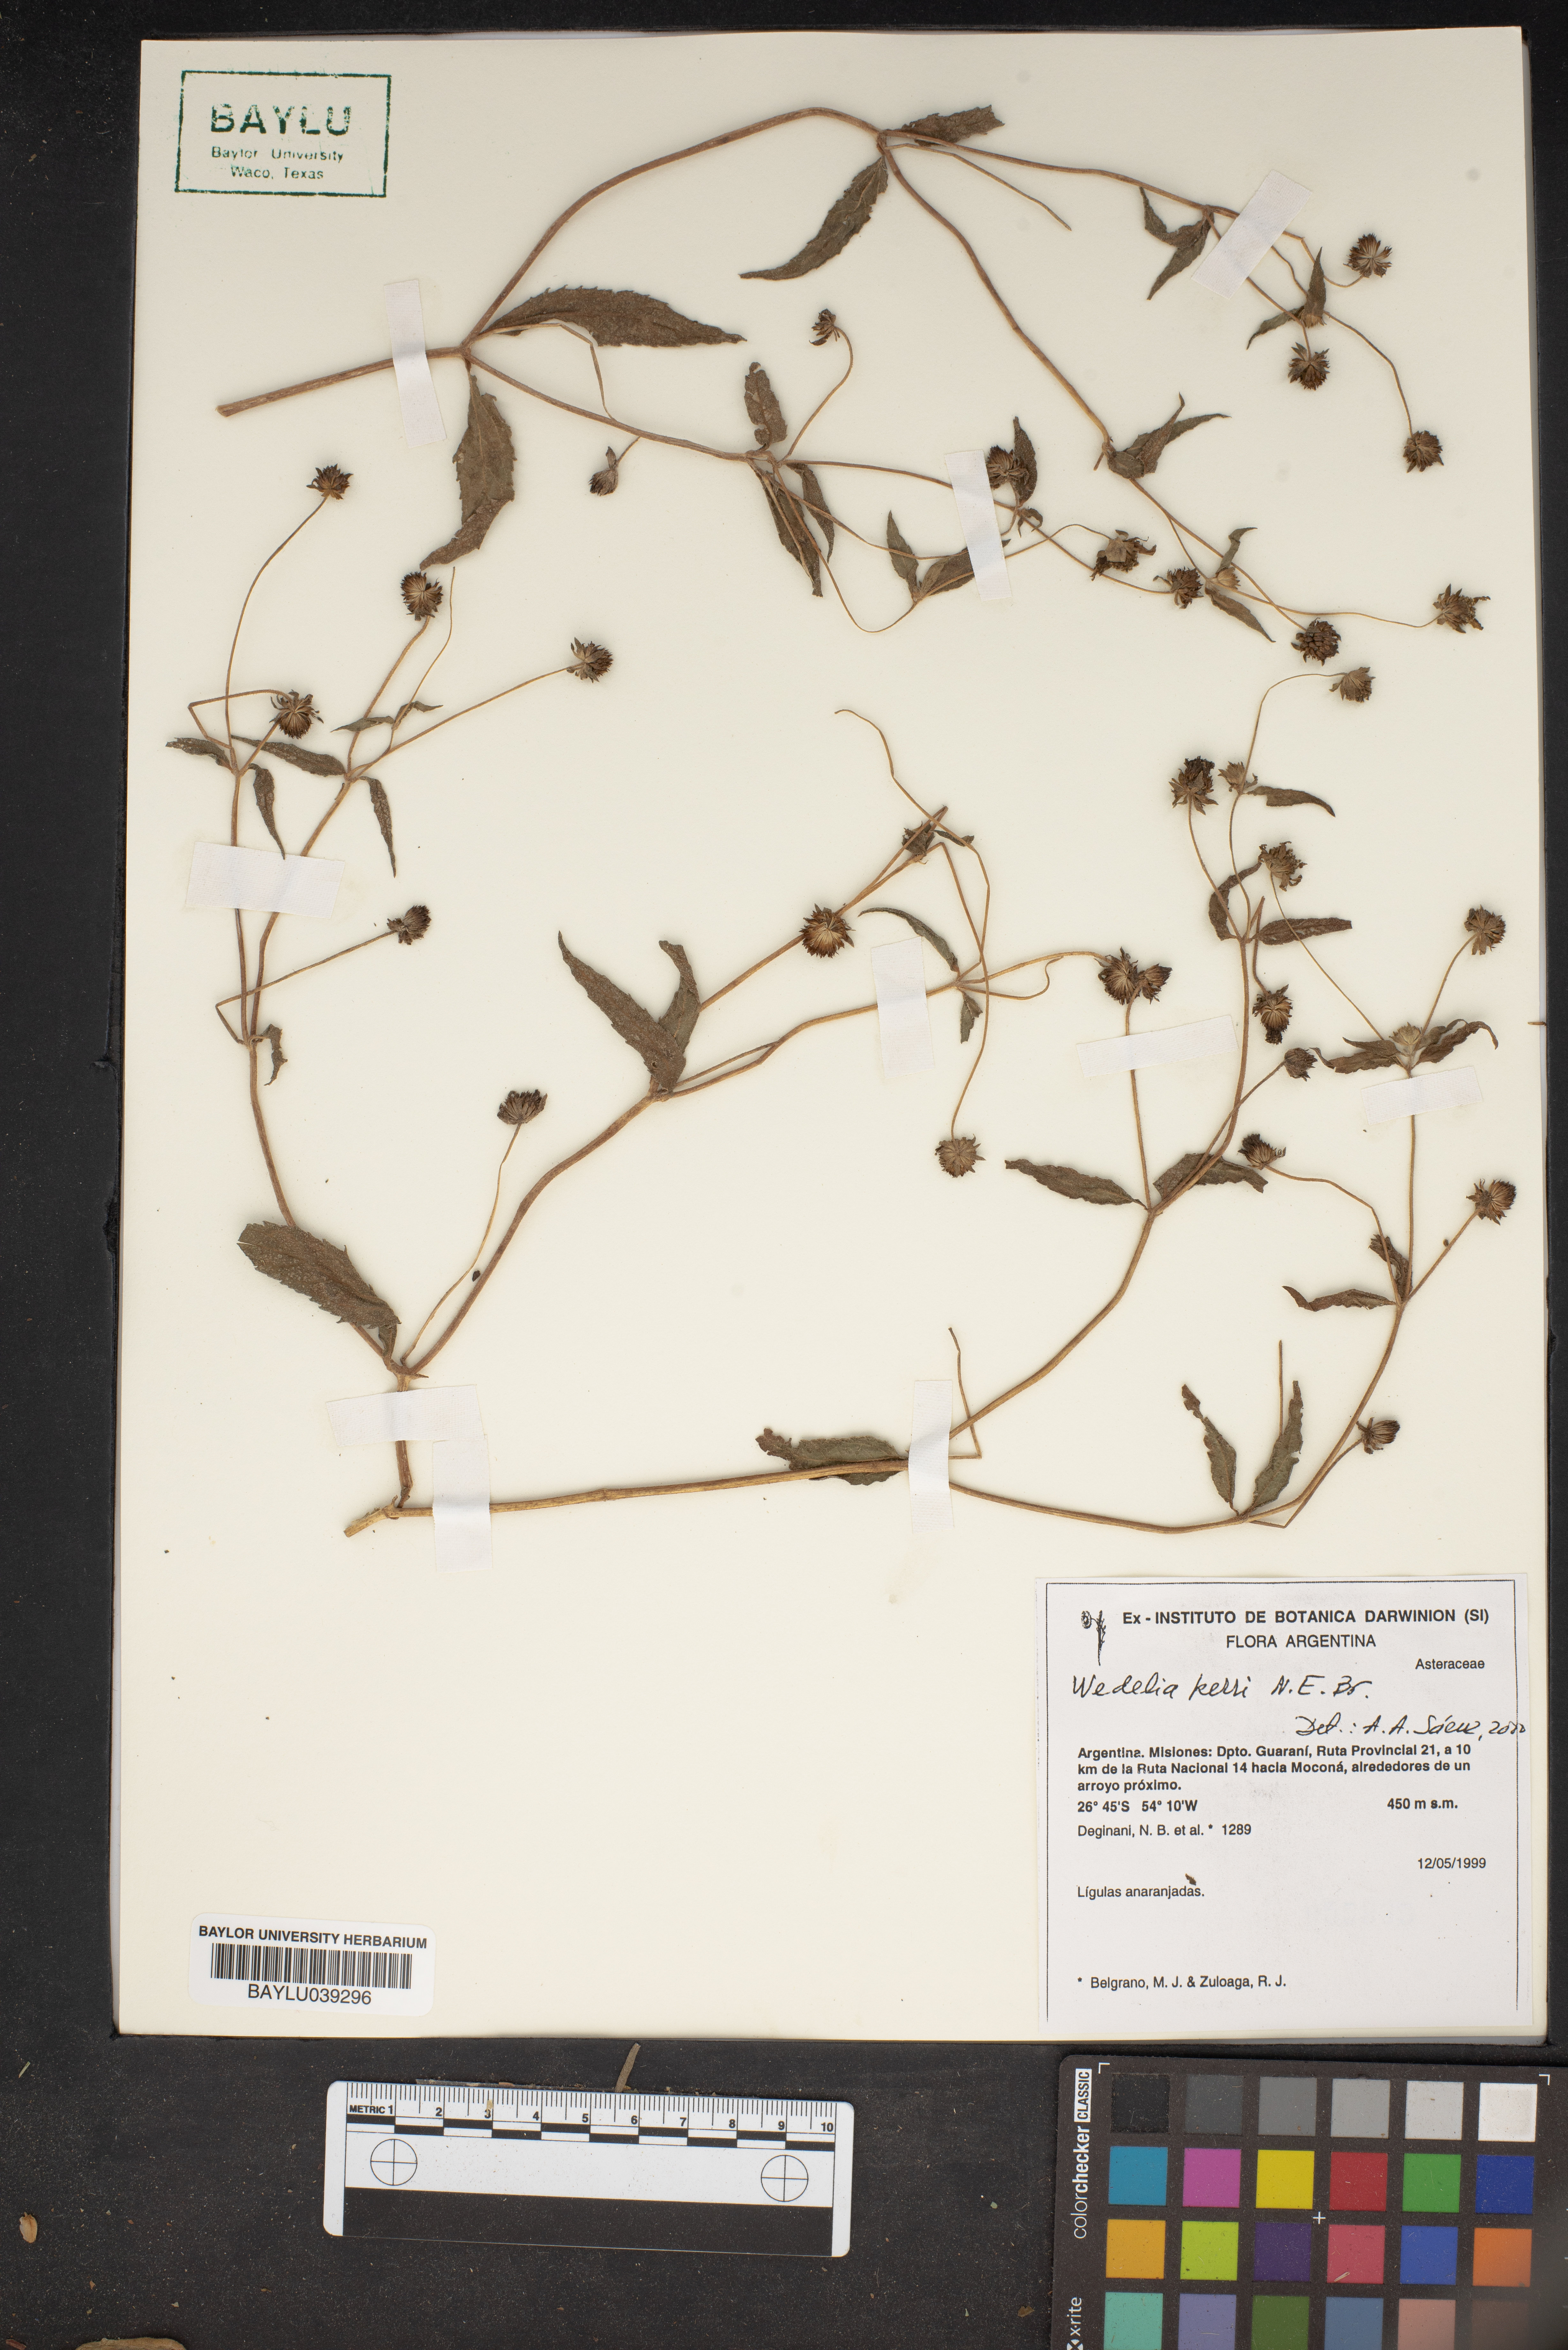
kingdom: Plantae
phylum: Tracheophyta
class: Magnoliopsida
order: Asterales
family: Asteraceae
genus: Wedelia
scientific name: Wedelia kerrii
